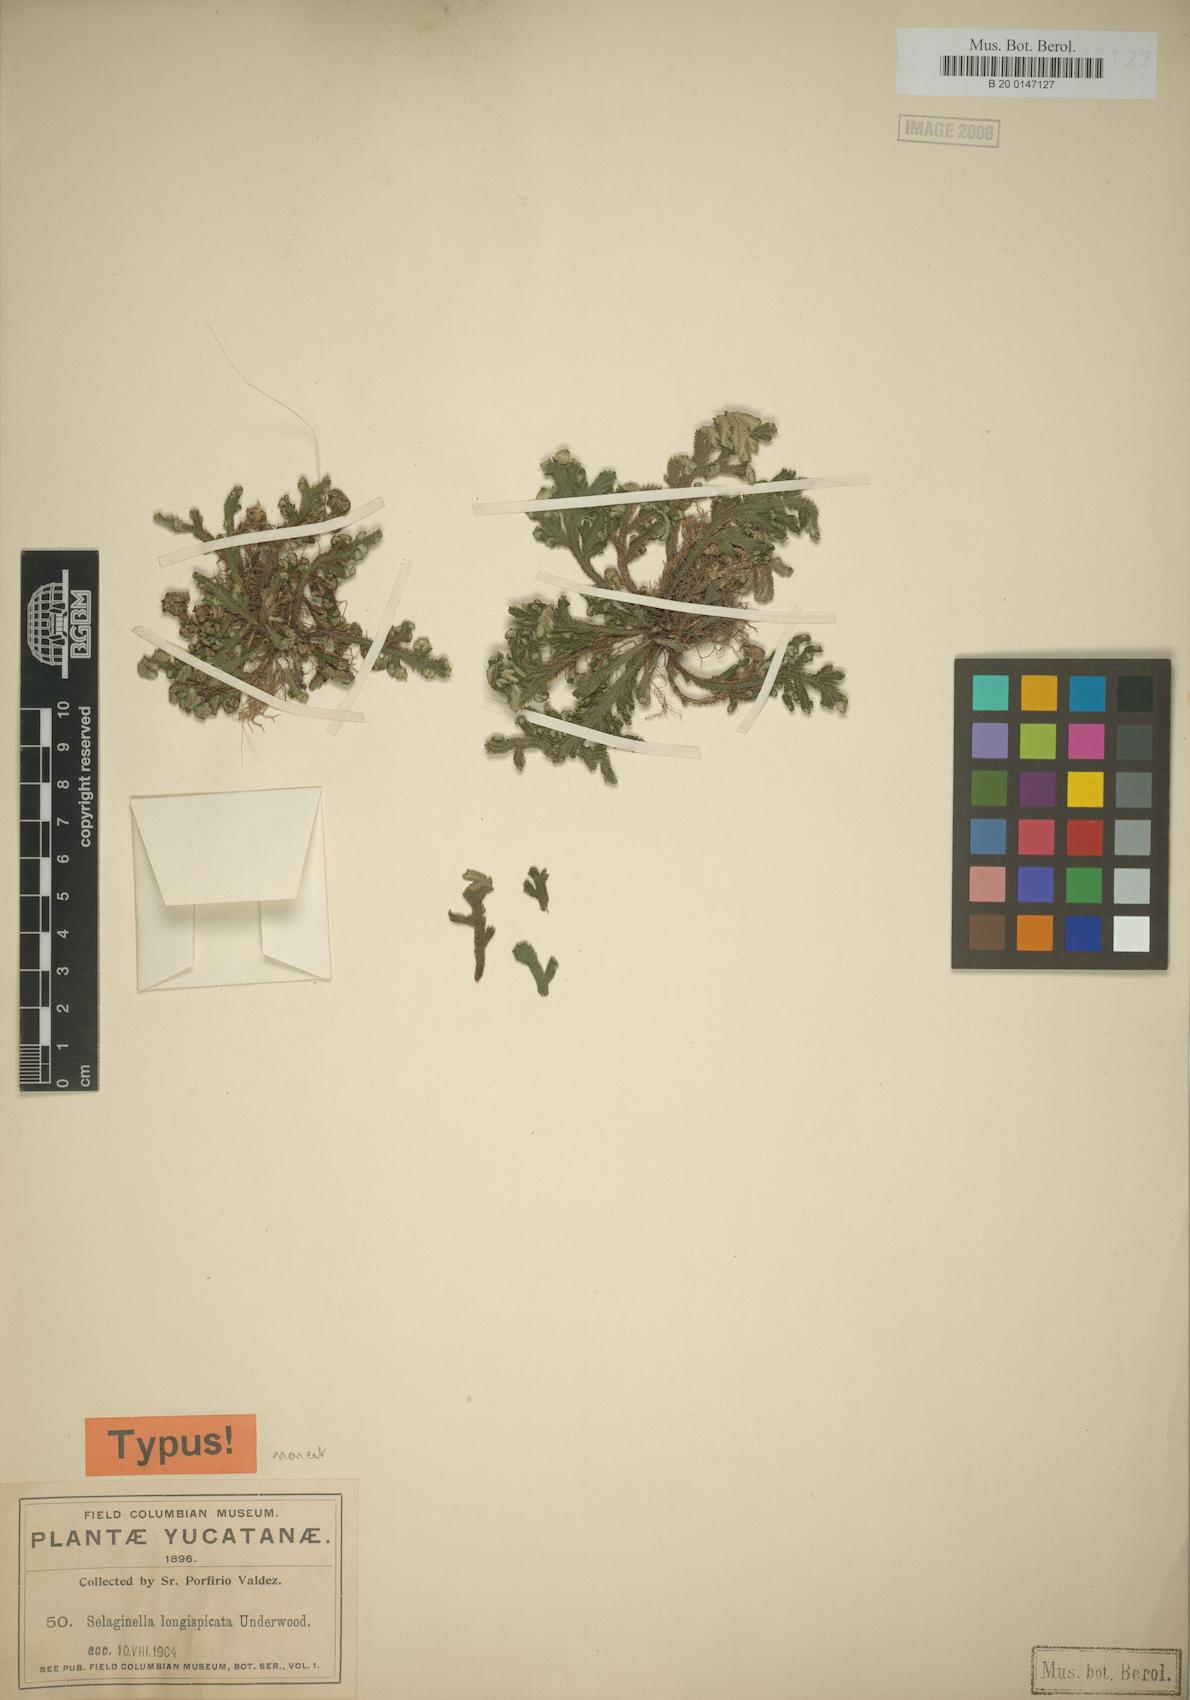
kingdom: Plantae
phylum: Tracheophyta
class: Lycopodiopsida
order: Selaginellales
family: Selaginellaceae
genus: Selaginella
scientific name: Selaginella convoluta
